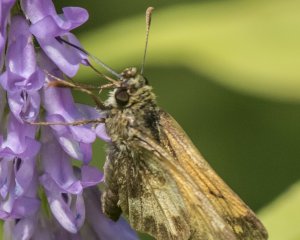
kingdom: Animalia
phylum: Arthropoda
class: Insecta
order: Lepidoptera
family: Hesperiidae
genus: Lon
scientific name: Lon hobomok
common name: Hobomok Skipper
